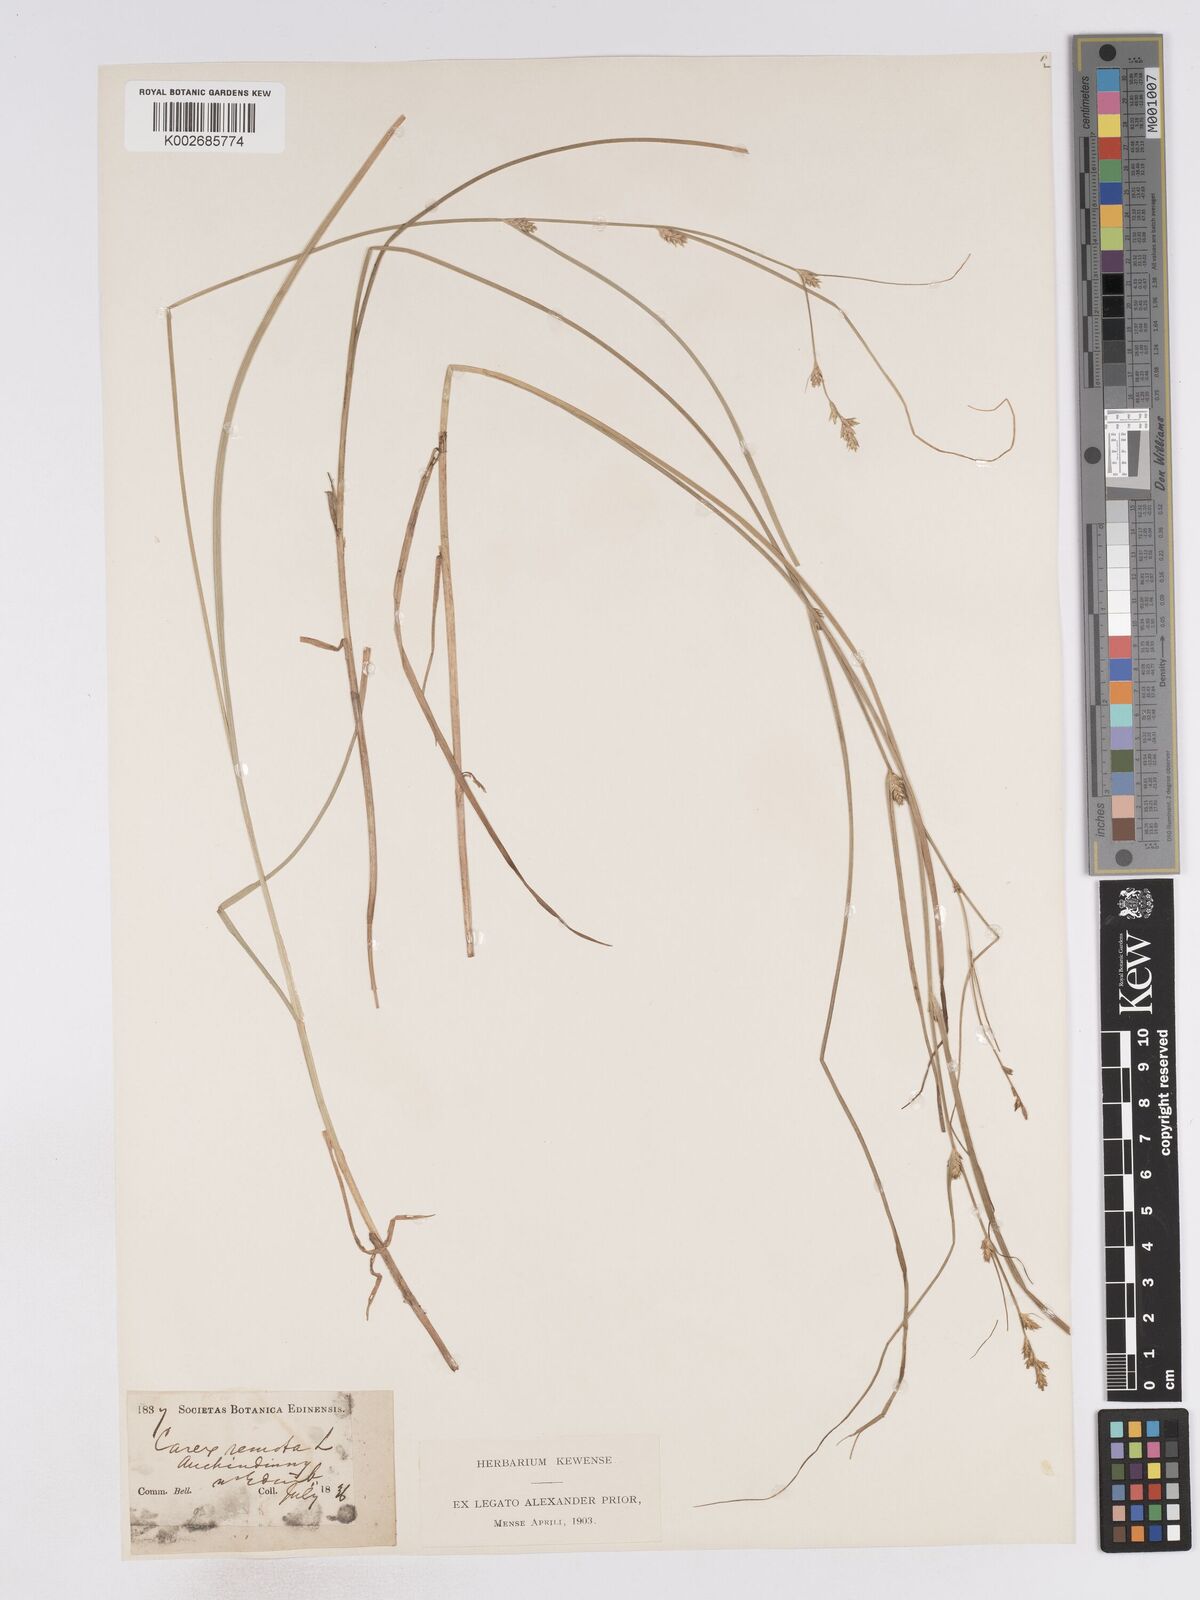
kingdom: Plantae
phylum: Tracheophyta
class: Liliopsida
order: Poales
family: Cyperaceae
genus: Carex
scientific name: Carex remota
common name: Remote sedge
